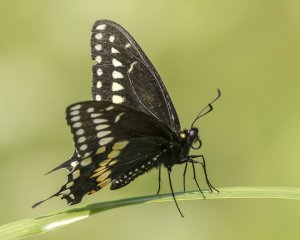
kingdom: Animalia
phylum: Arthropoda
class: Insecta
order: Lepidoptera
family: Papilionidae
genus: Papilio
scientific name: Papilio polyxenes
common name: Black Swallowtail
